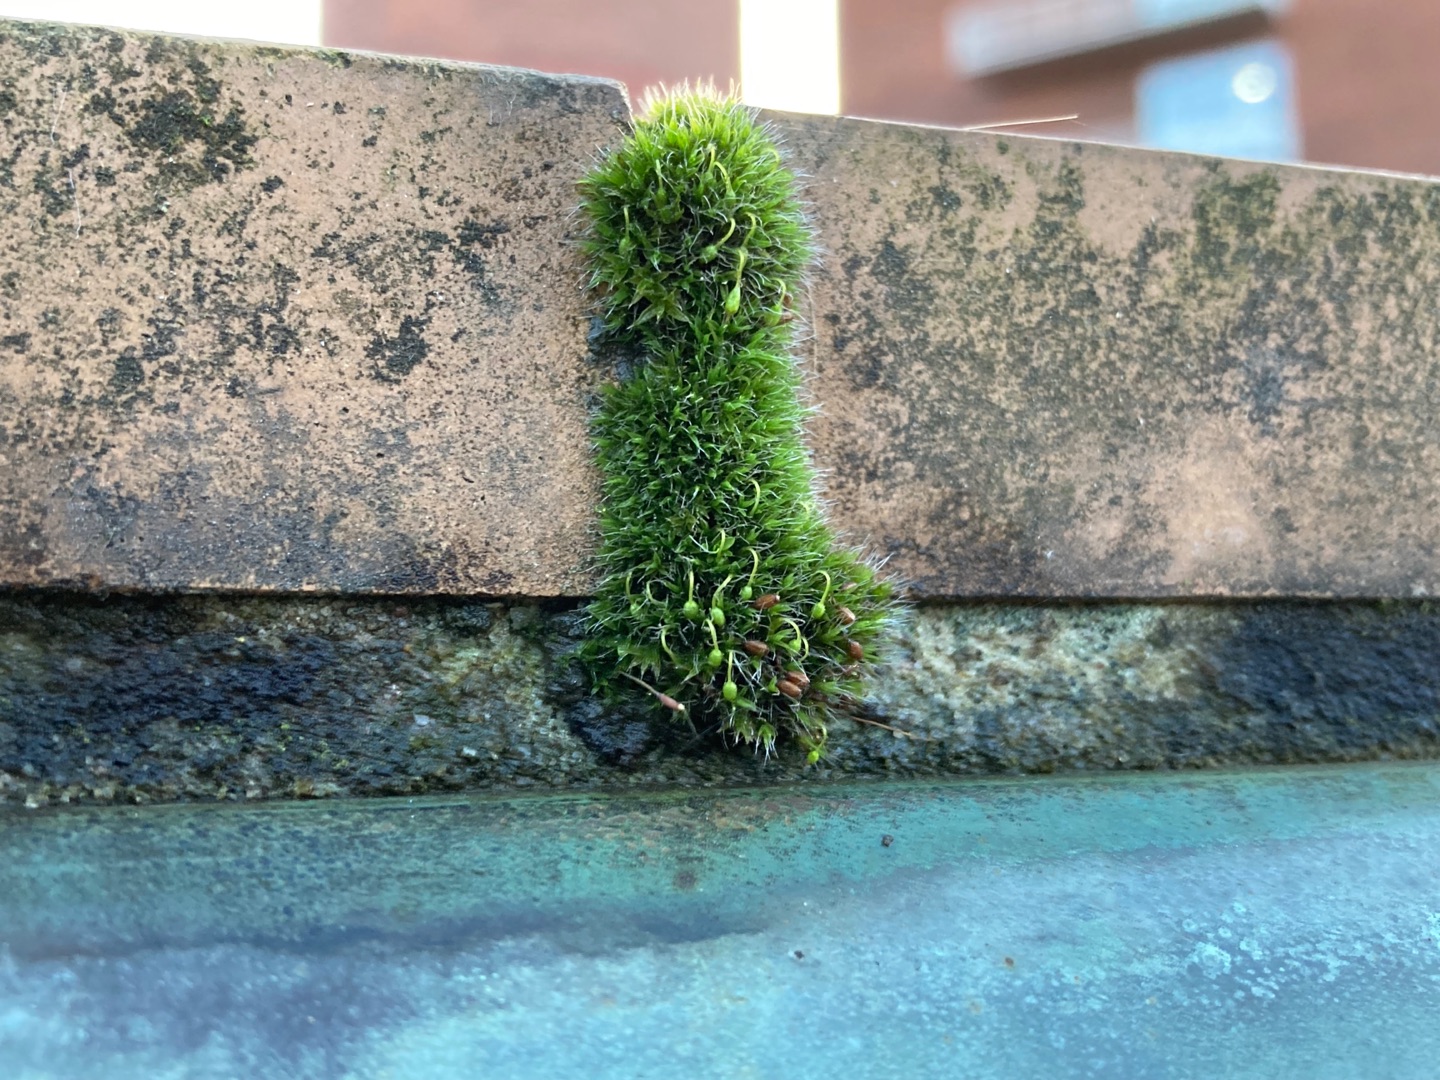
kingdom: Plantae
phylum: Bryophyta
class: Bryopsida
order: Grimmiales
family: Grimmiaceae
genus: Grimmia
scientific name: Grimmia pulvinata
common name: Pude-gråmos
